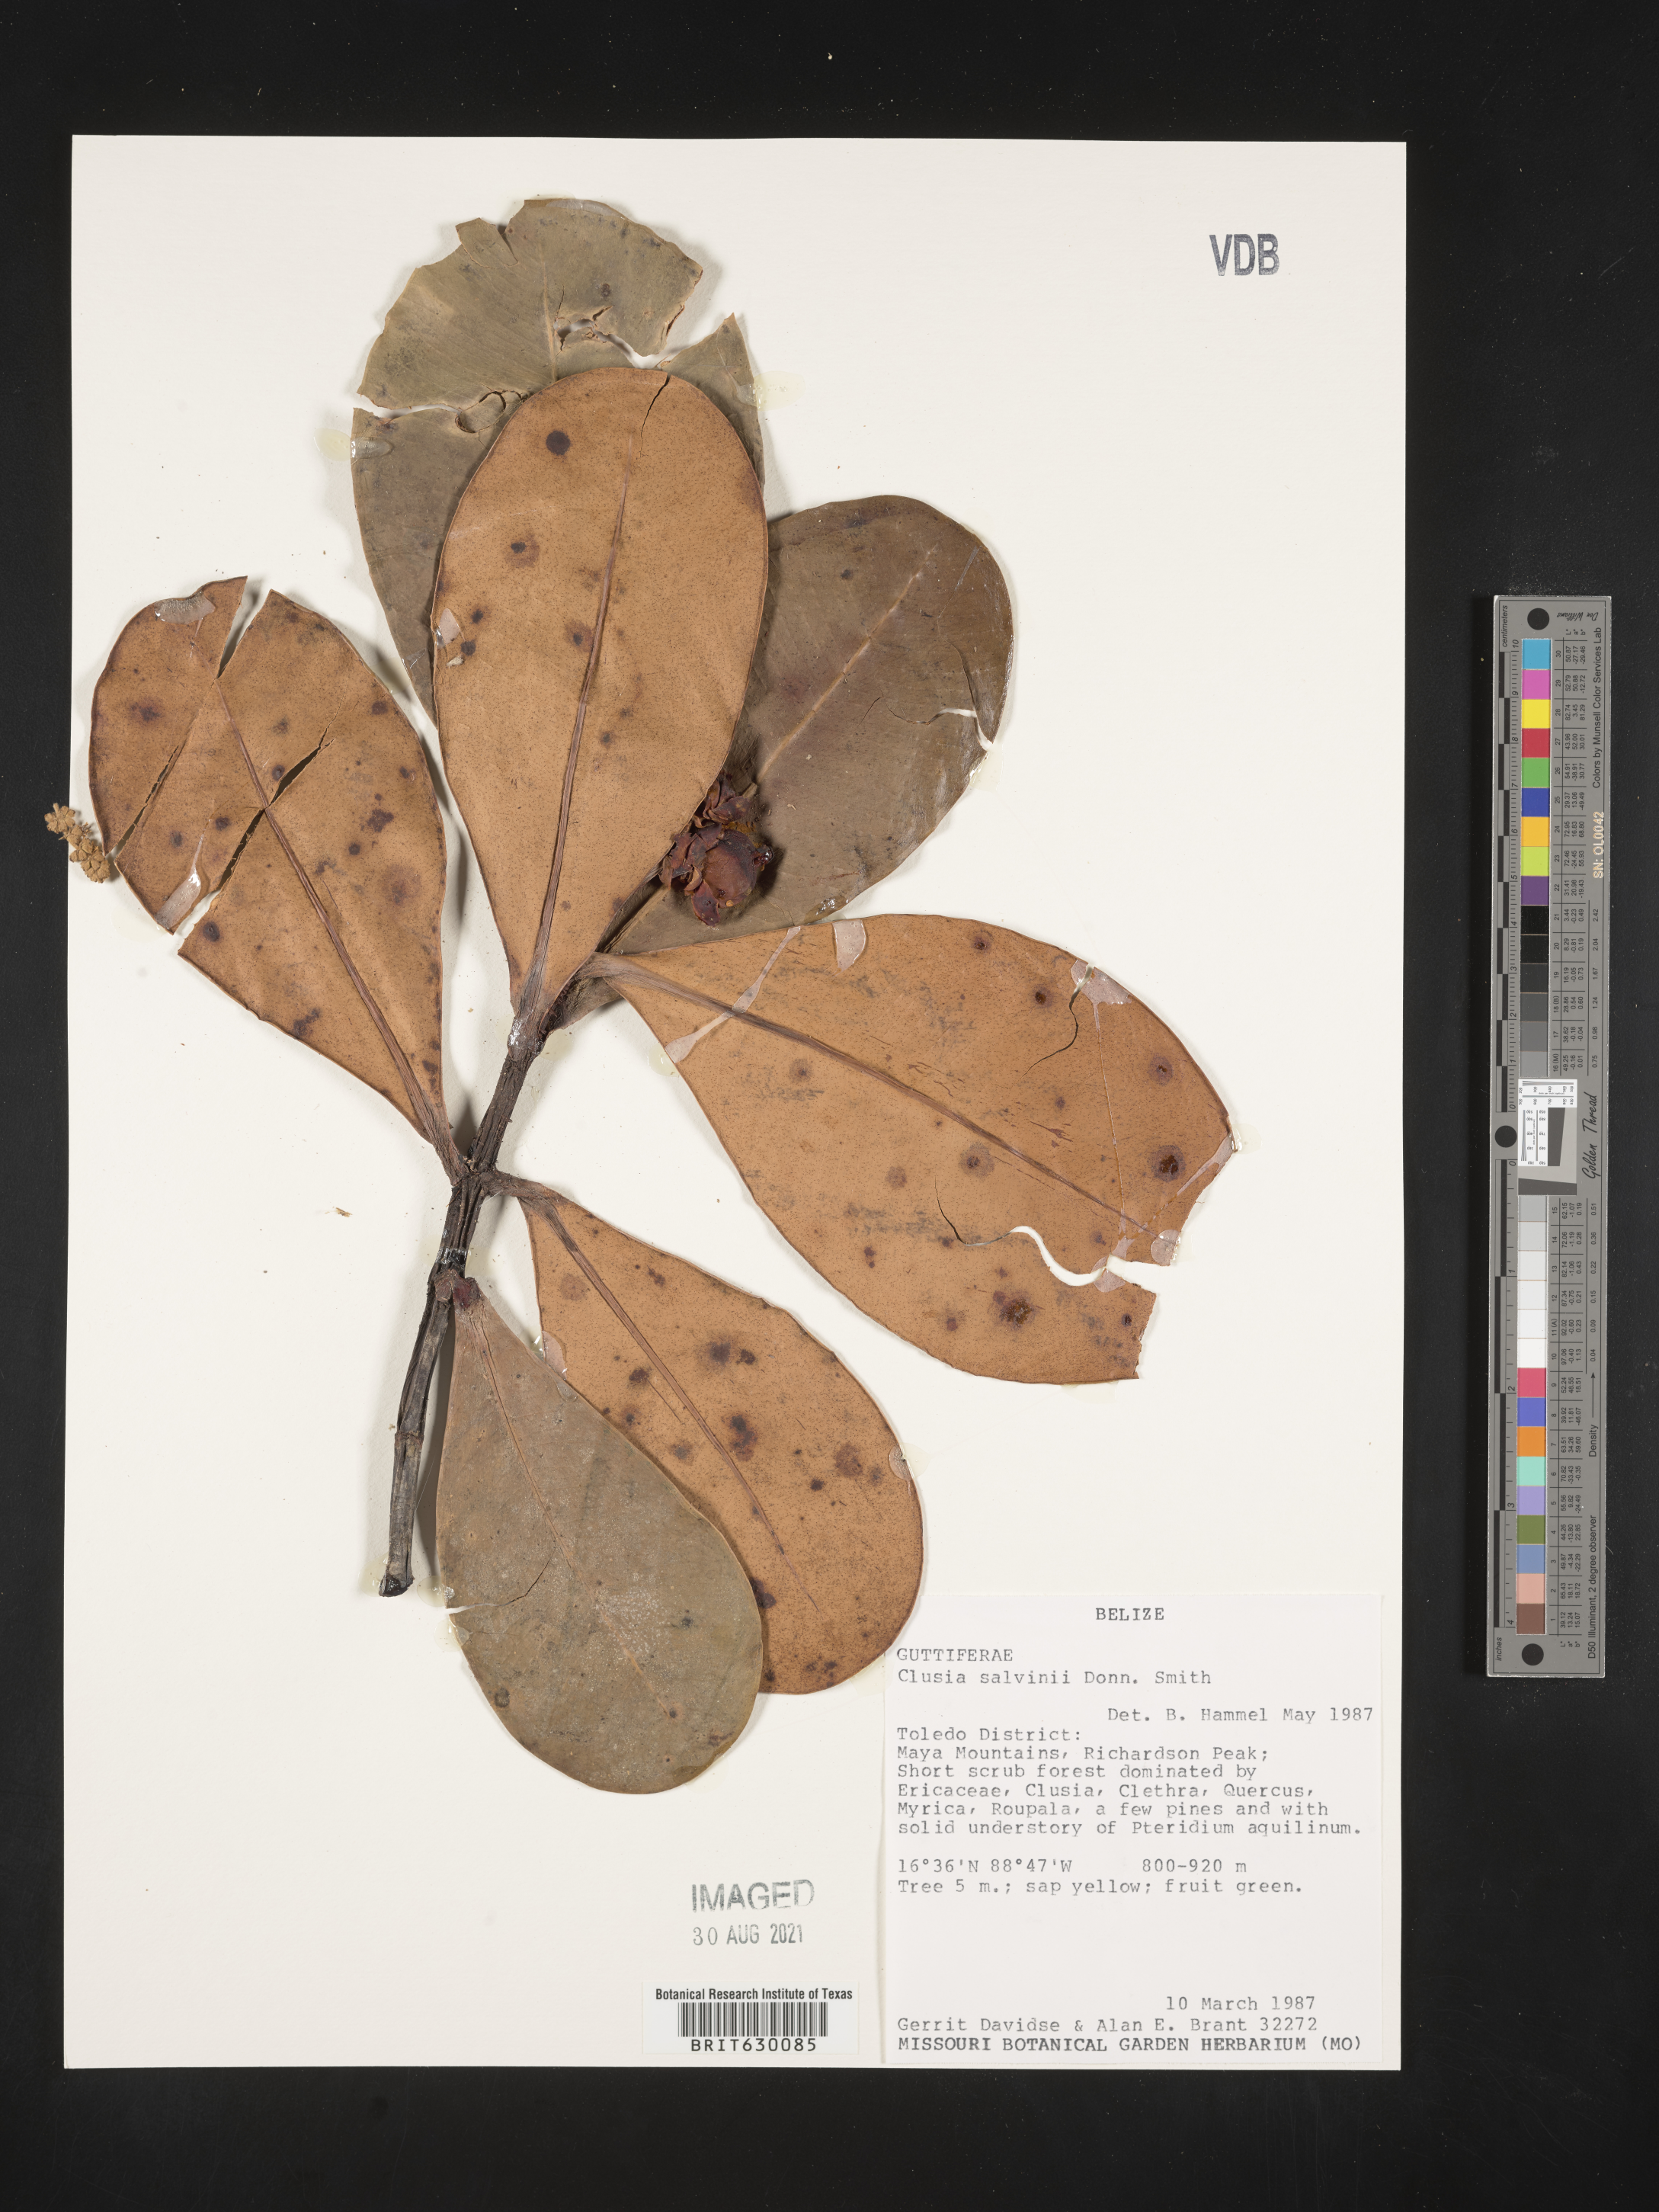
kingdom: Plantae
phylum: Tracheophyta
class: Magnoliopsida
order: Malpighiales
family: Clusiaceae
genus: Clusia
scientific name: Clusia salvinii
